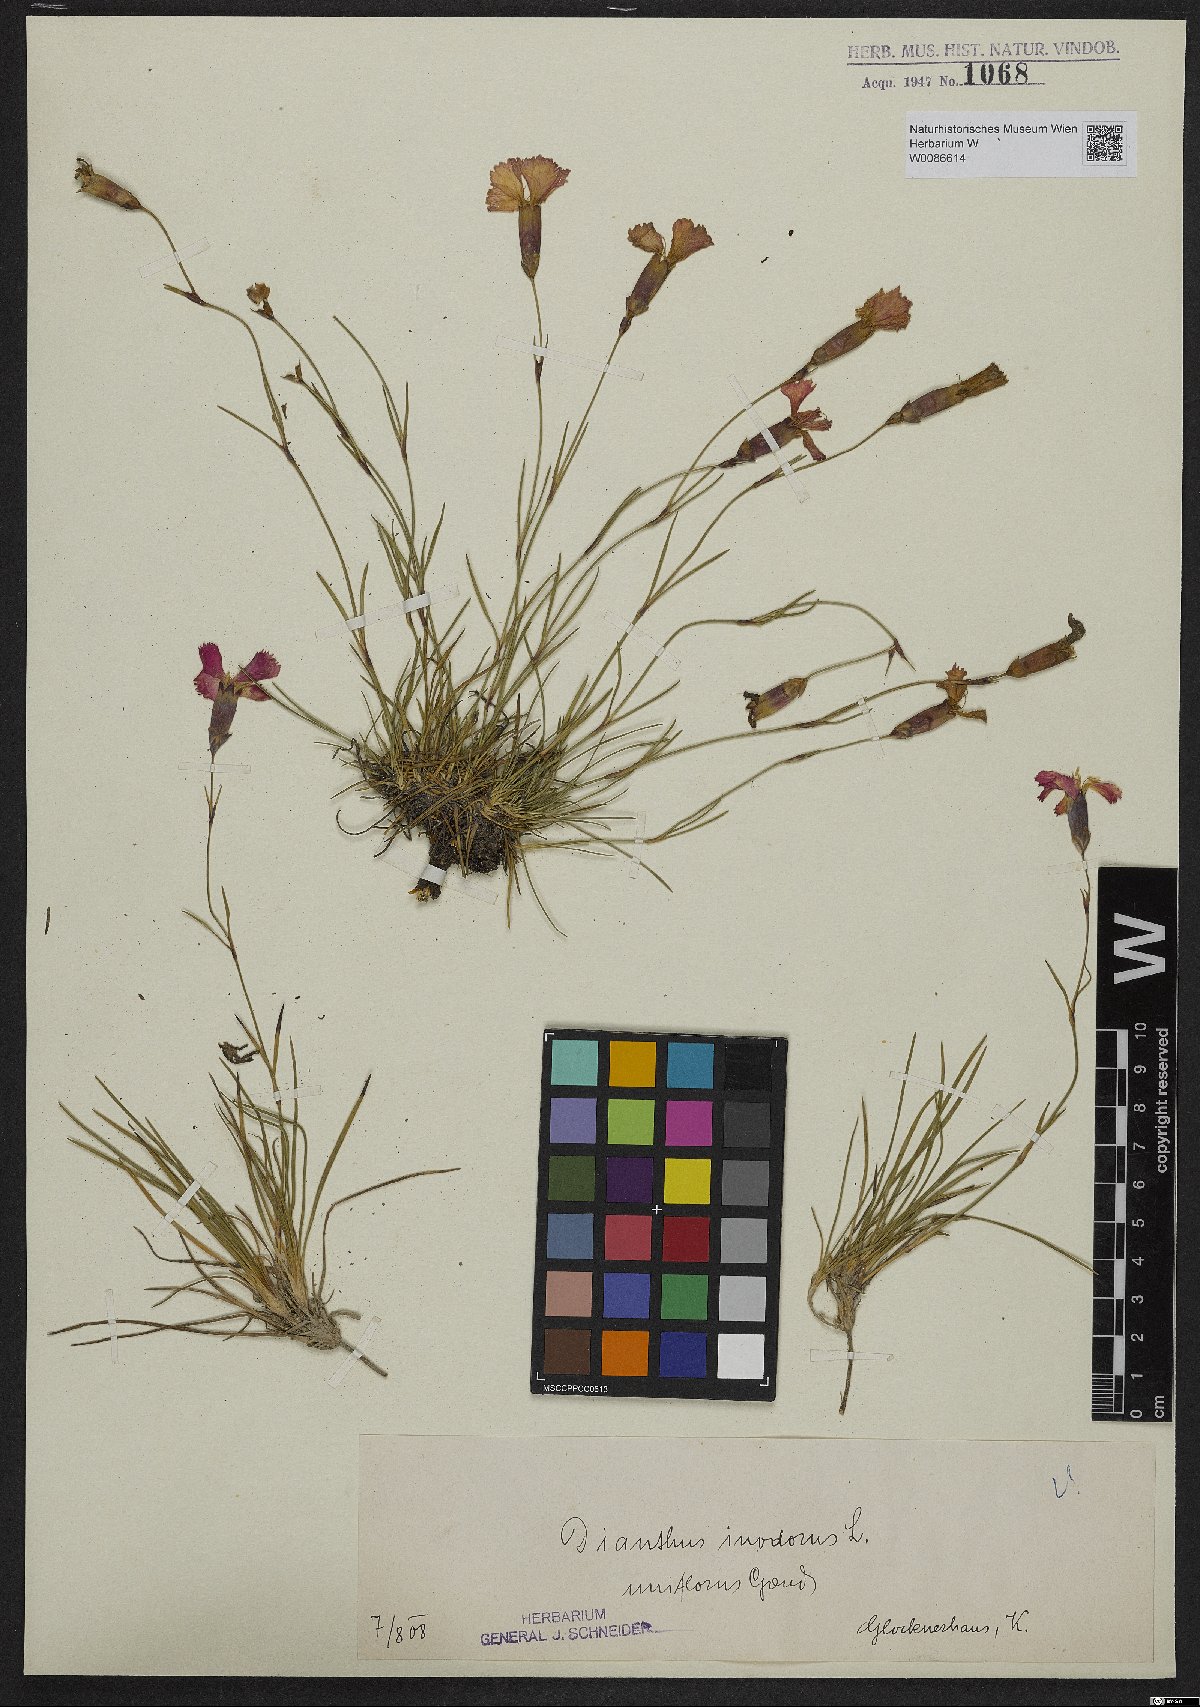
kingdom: Plantae
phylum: Tracheophyta
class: Magnoliopsida
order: Caryophyllales
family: Caryophyllaceae
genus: Dianthus
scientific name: Dianthus sylvestris
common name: Wood pink
